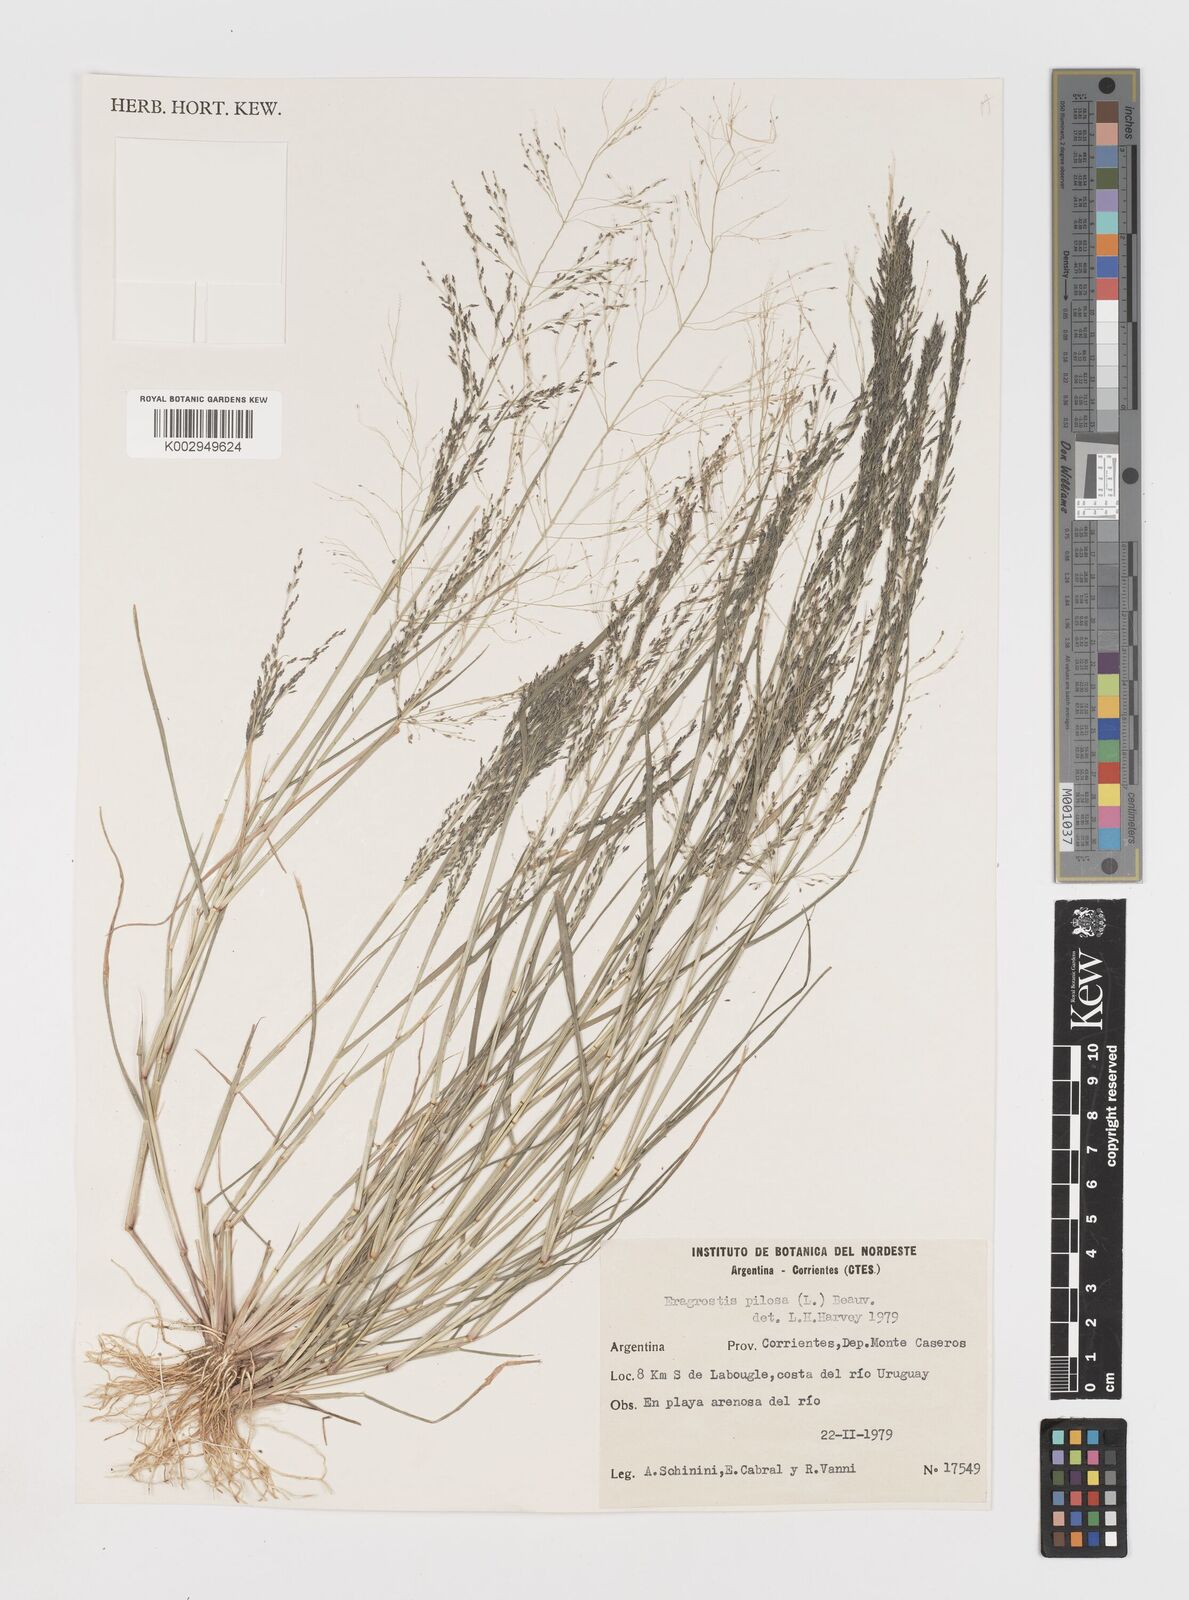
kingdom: Plantae
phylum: Tracheophyta
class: Liliopsida
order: Poales
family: Poaceae
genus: Eragrostis
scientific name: Eragrostis pilosa
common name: Indian lovegrass
